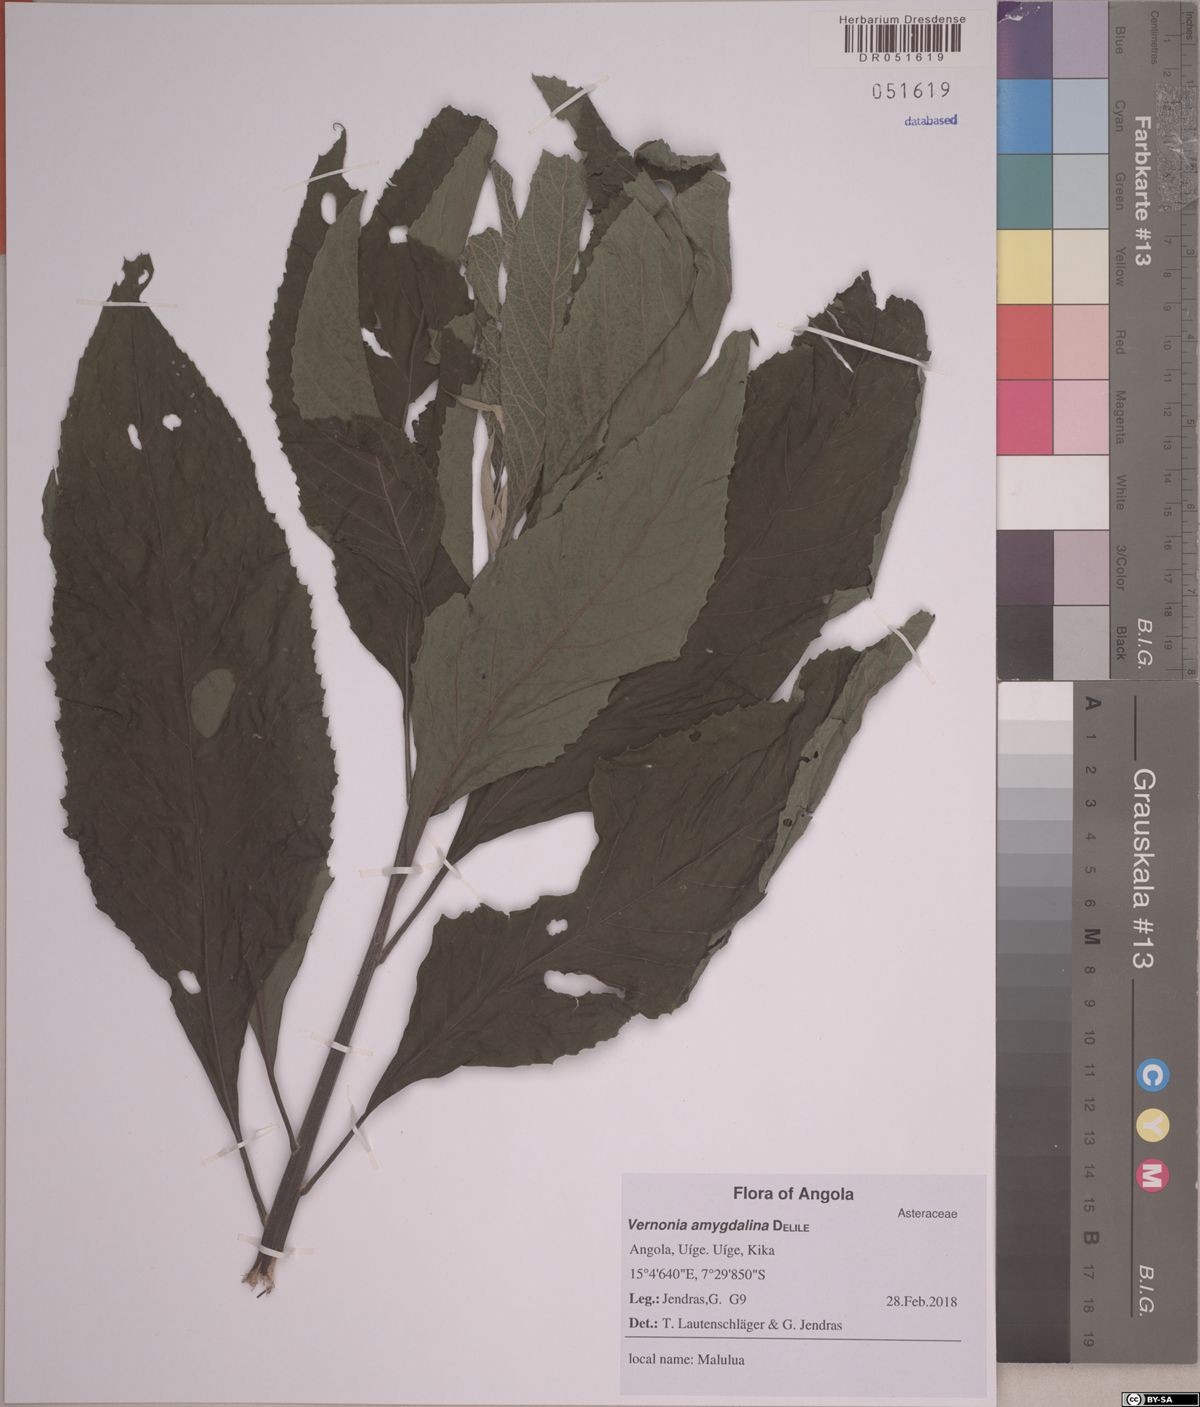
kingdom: Plantae
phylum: Tracheophyta
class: Magnoliopsida
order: Asterales
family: Asteraceae
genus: Gymnanthemum
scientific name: Gymnanthemum amygdalinum
